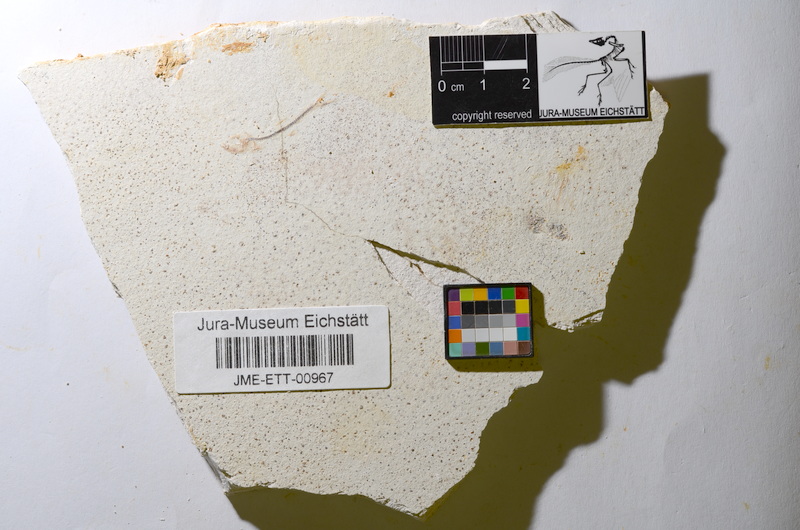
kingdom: Animalia
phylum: Chordata
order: Salmoniformes
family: Orthogonikleithridae
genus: Orthogonikleithrus
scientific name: Orthogonikleithrus hoelli
